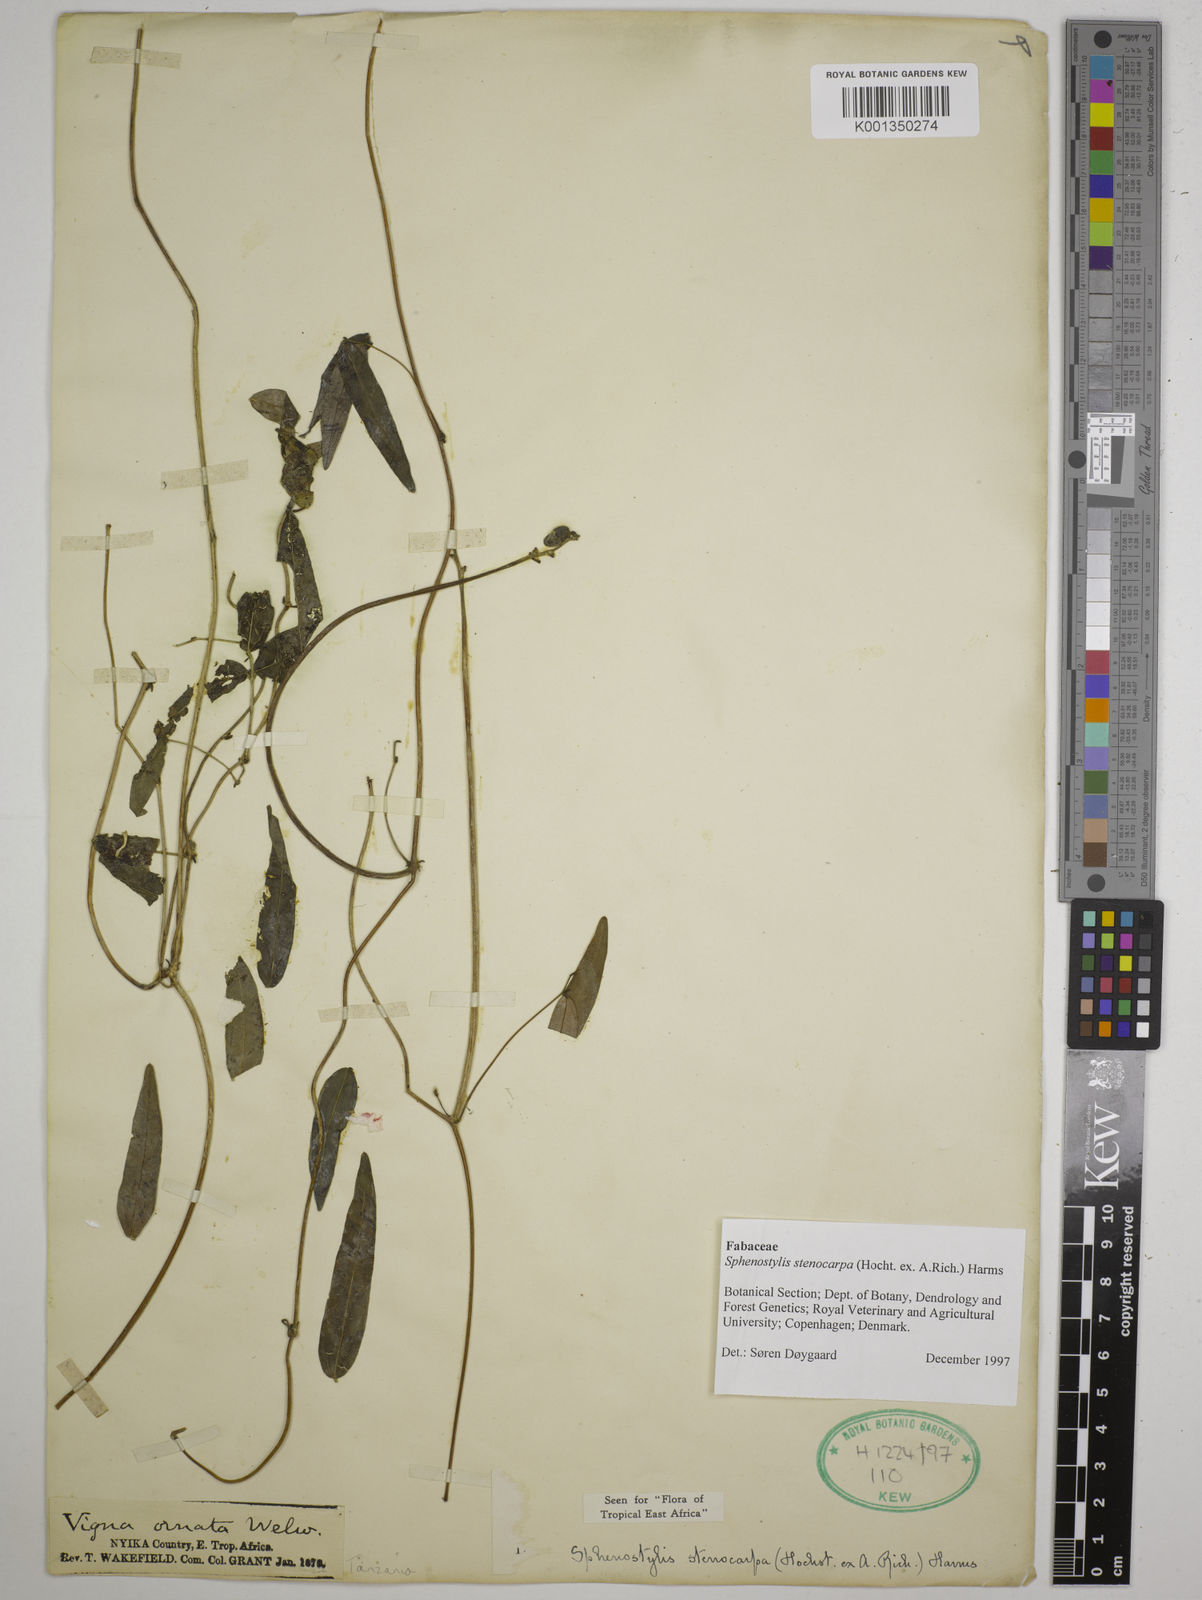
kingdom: Plantae
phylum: Tracheophyta
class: Magnoliopsida
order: Fabales
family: Fabaceae
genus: Sphenostylis
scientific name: Sphenostylis stenocarpa
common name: Yam-pea
